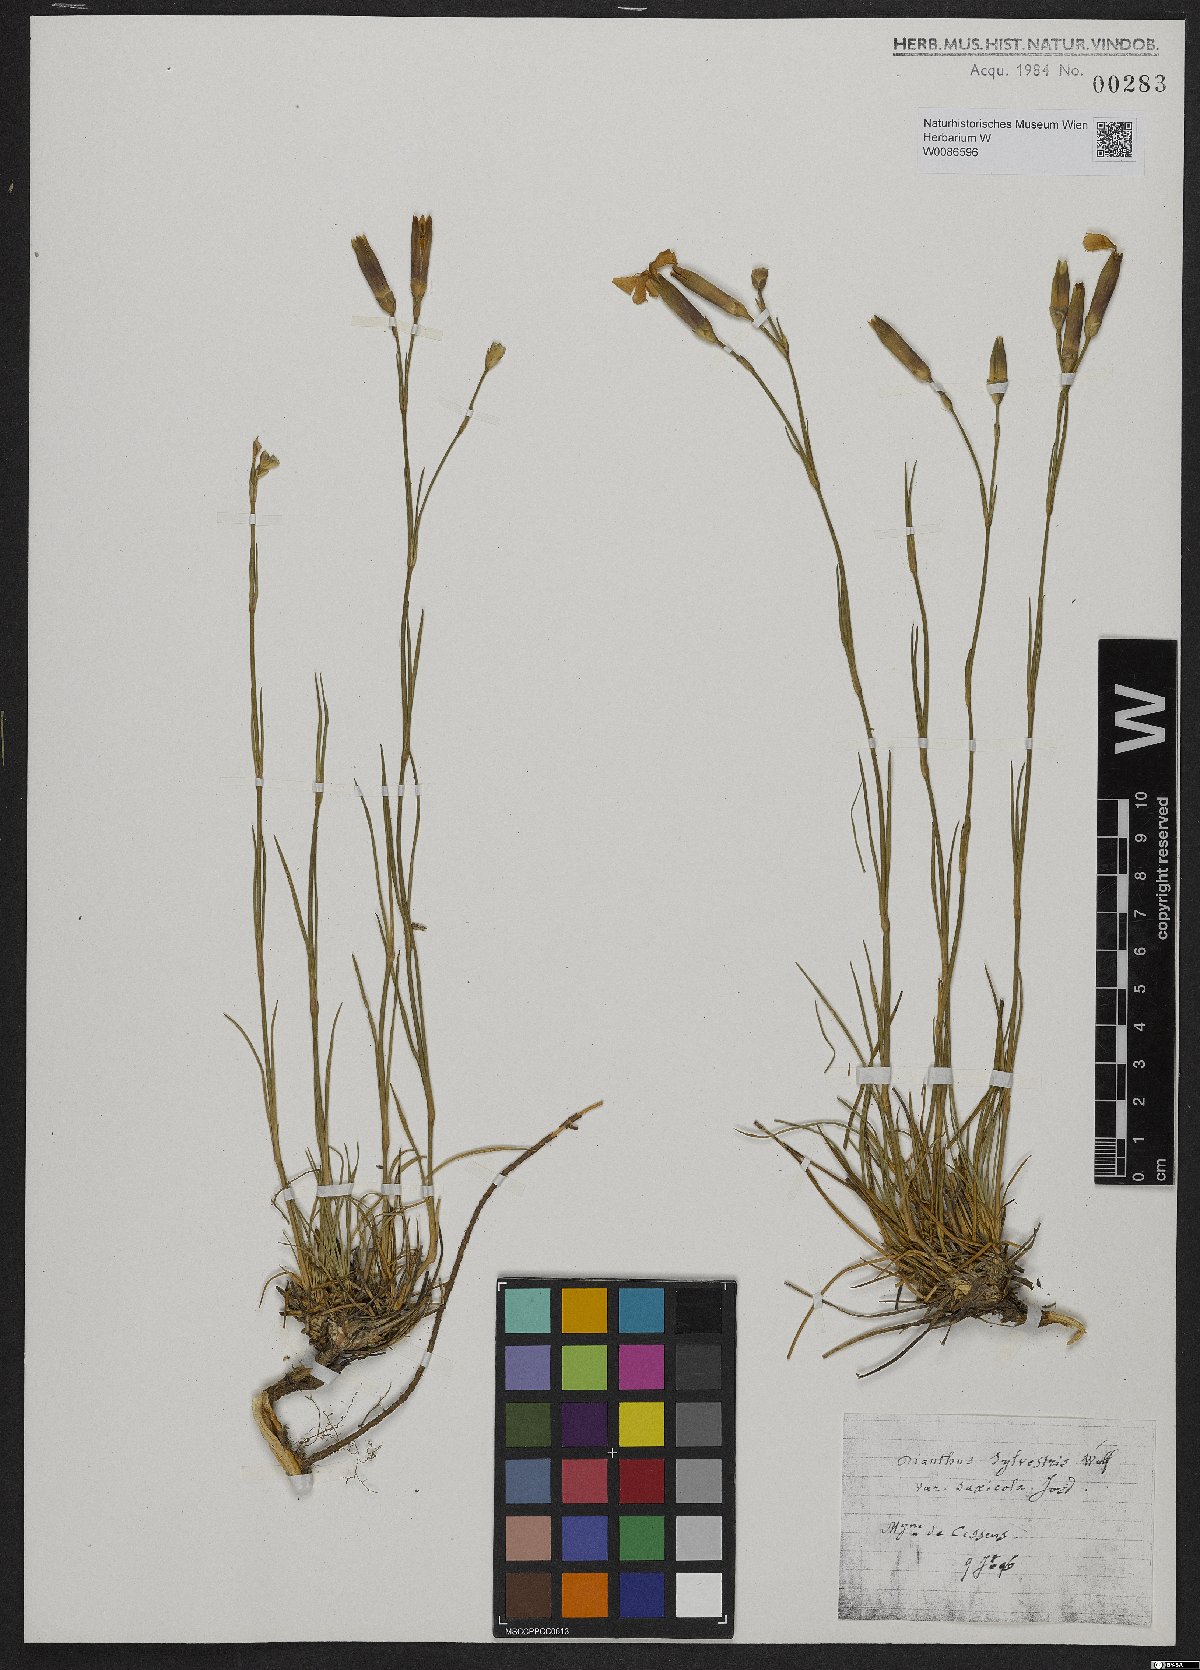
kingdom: Plantae
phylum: Tracheophyta
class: Magnoliopsida
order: Caryophyllales
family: Caryophyllaceae
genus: Dianthus
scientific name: Dianthus sylvestris
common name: Wood pink
